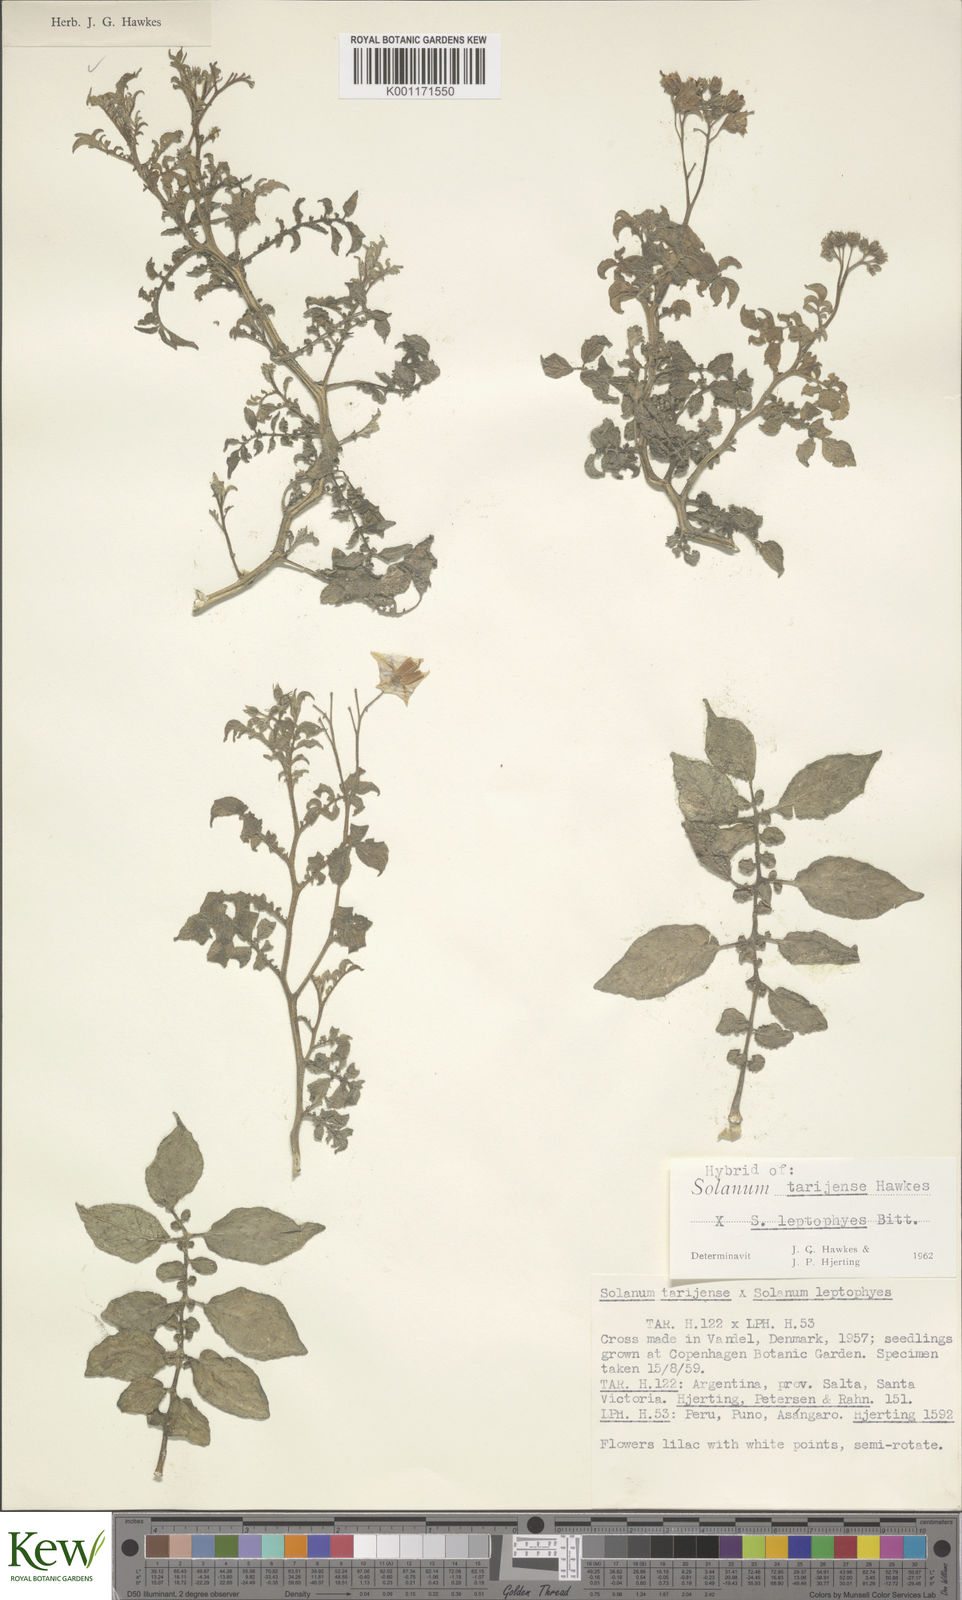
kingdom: Plantae
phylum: Tracheophyta
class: Magnoliopsida
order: Solanales
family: Solanaceae
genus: Solanum
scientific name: Solanum tarijense
